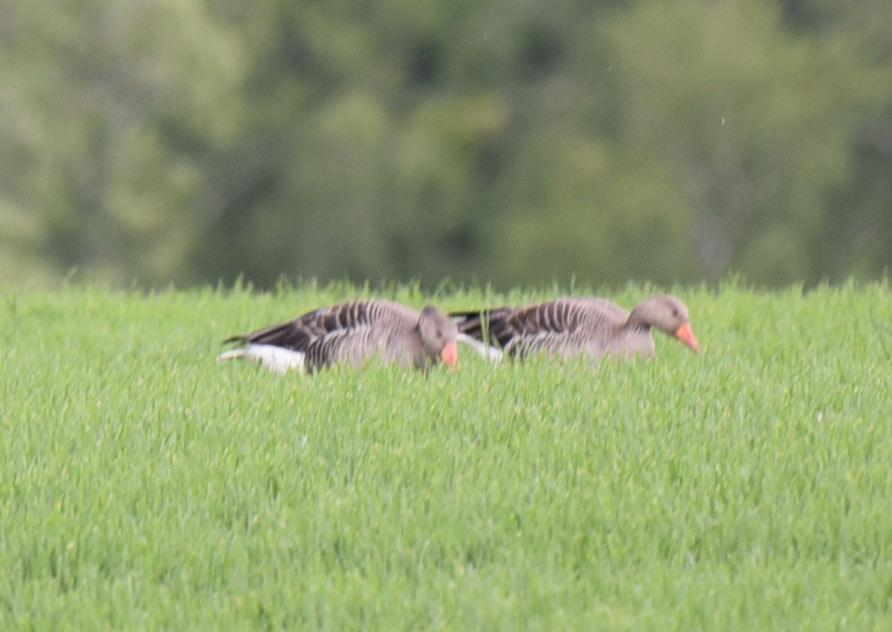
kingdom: Animalia
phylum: Chordata
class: Aves
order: Anseriformes
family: Anatidae
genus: Anser
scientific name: Anser anser
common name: Greylag goose
